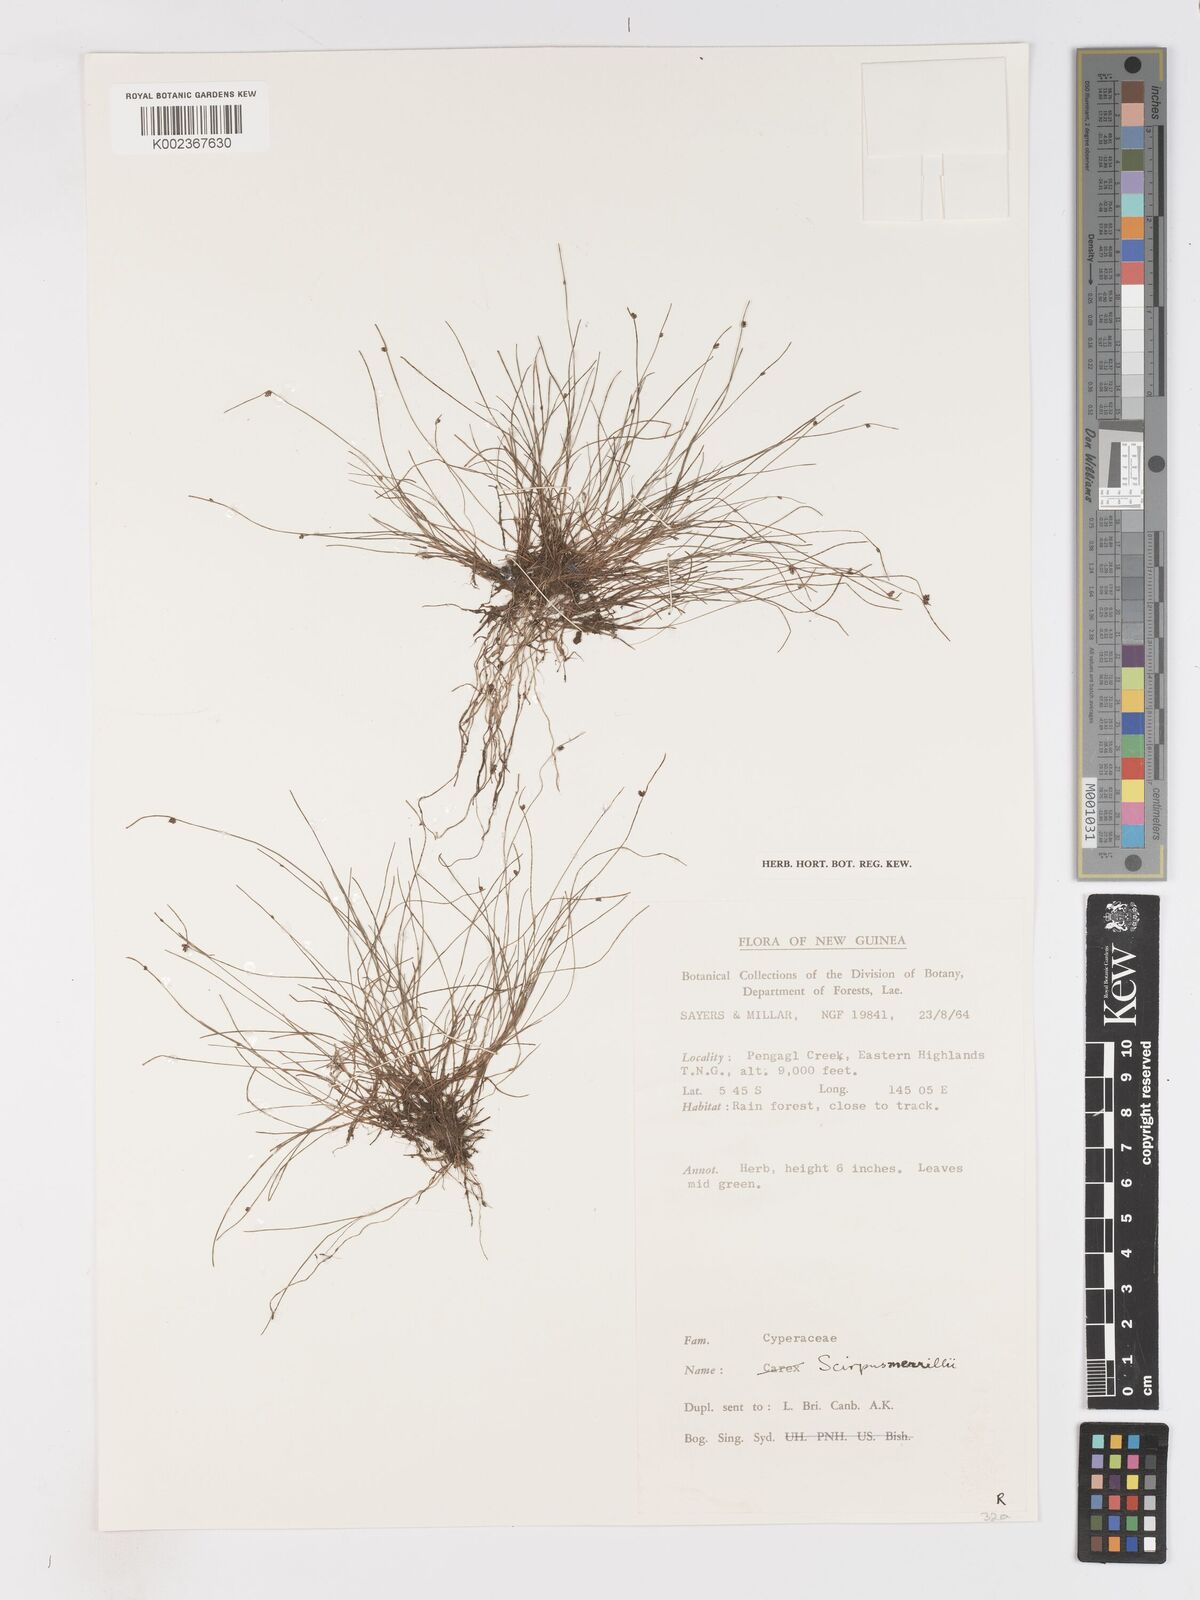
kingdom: Plantae
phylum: Tracheophyta
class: Liliopsida
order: Poales
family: Cyperaceae
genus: Isolepis
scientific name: Isolepis habra
